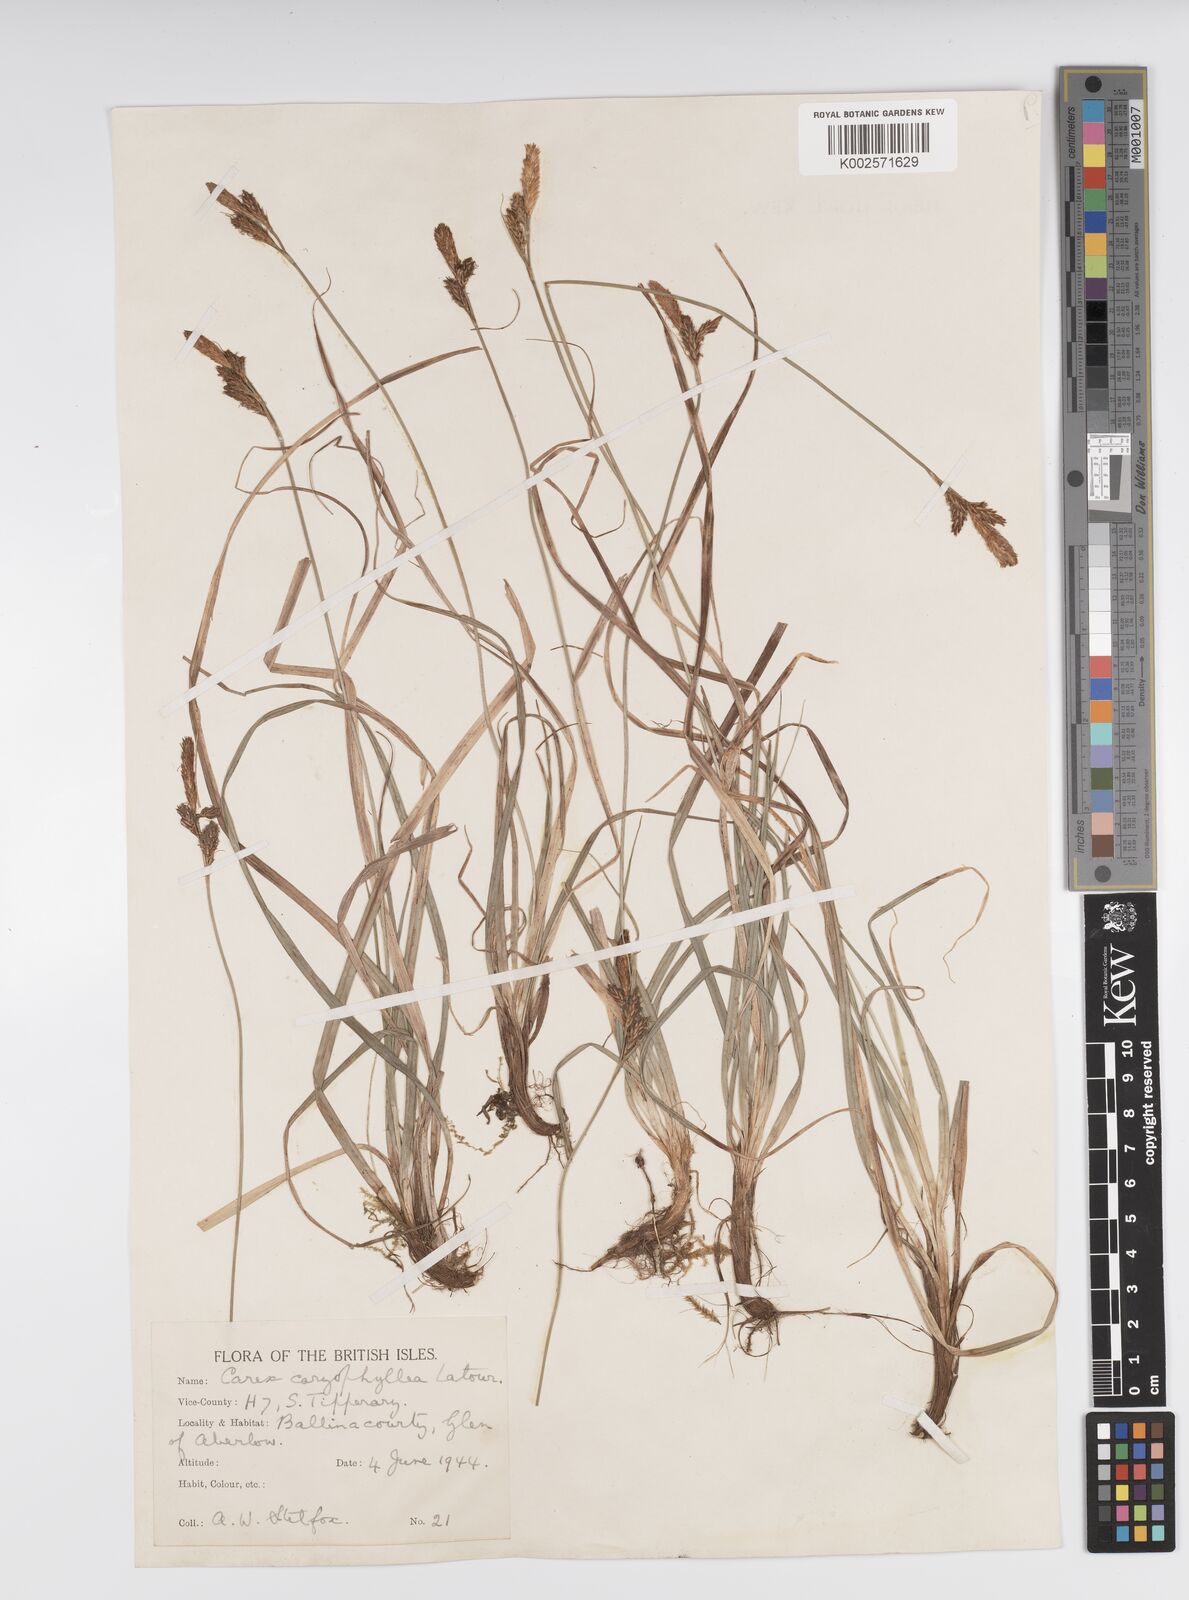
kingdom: Plantae
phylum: Tracheophyta
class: Liliopsida
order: Poales
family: Cyperaceae
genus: Carex
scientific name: Carex caryophyllea
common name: Spring sedge
